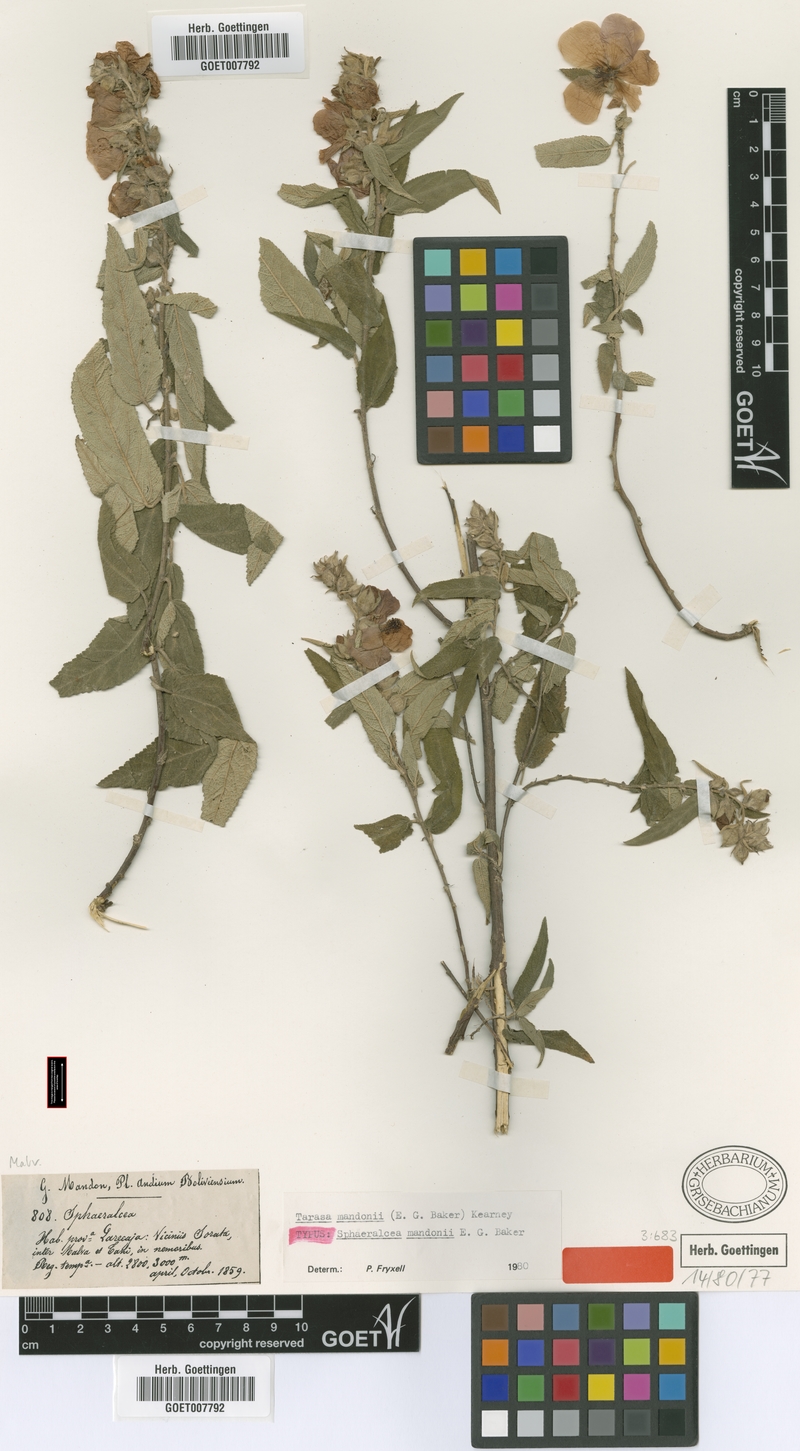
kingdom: Plantae
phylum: Tracheophyta
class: Magnoliopsida
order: Malvales
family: Malvaceae
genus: Andeimalva
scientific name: Andeimalva mandonii
